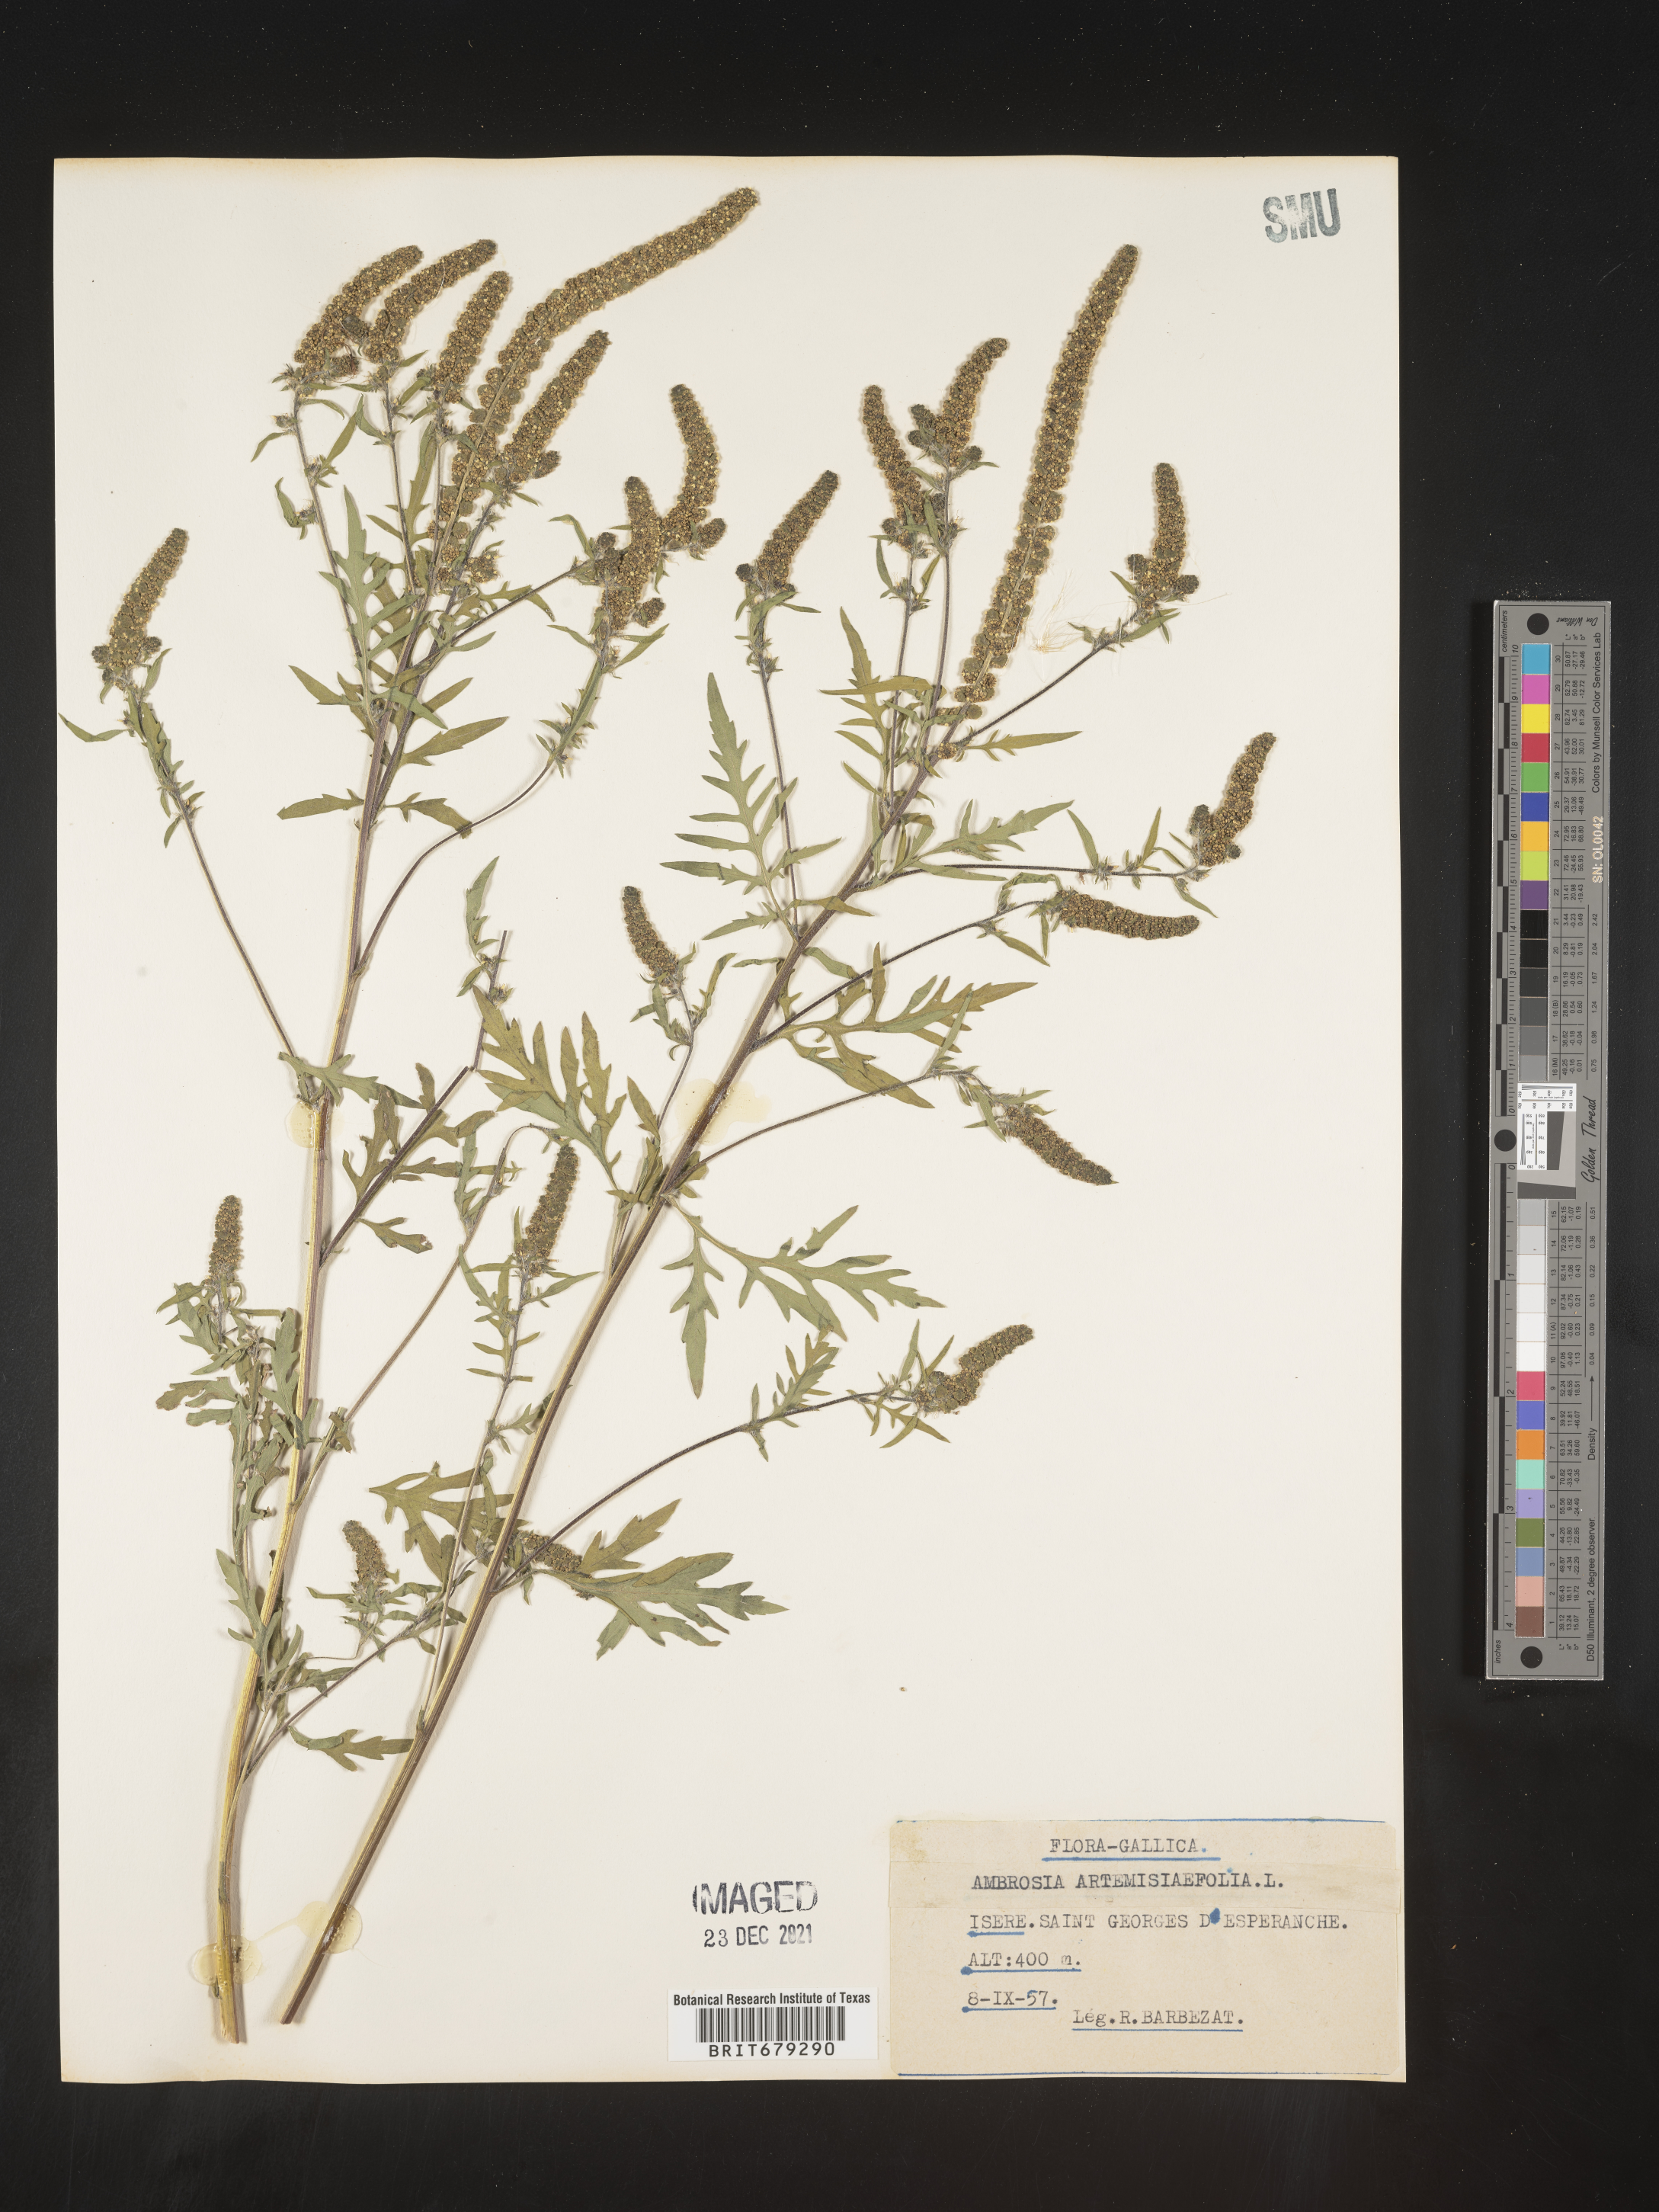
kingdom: Plantae
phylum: Tracheophyta
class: Magnoliopsida
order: Asterales
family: Asteraceae
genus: Ambrosia
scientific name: Ambrosia
